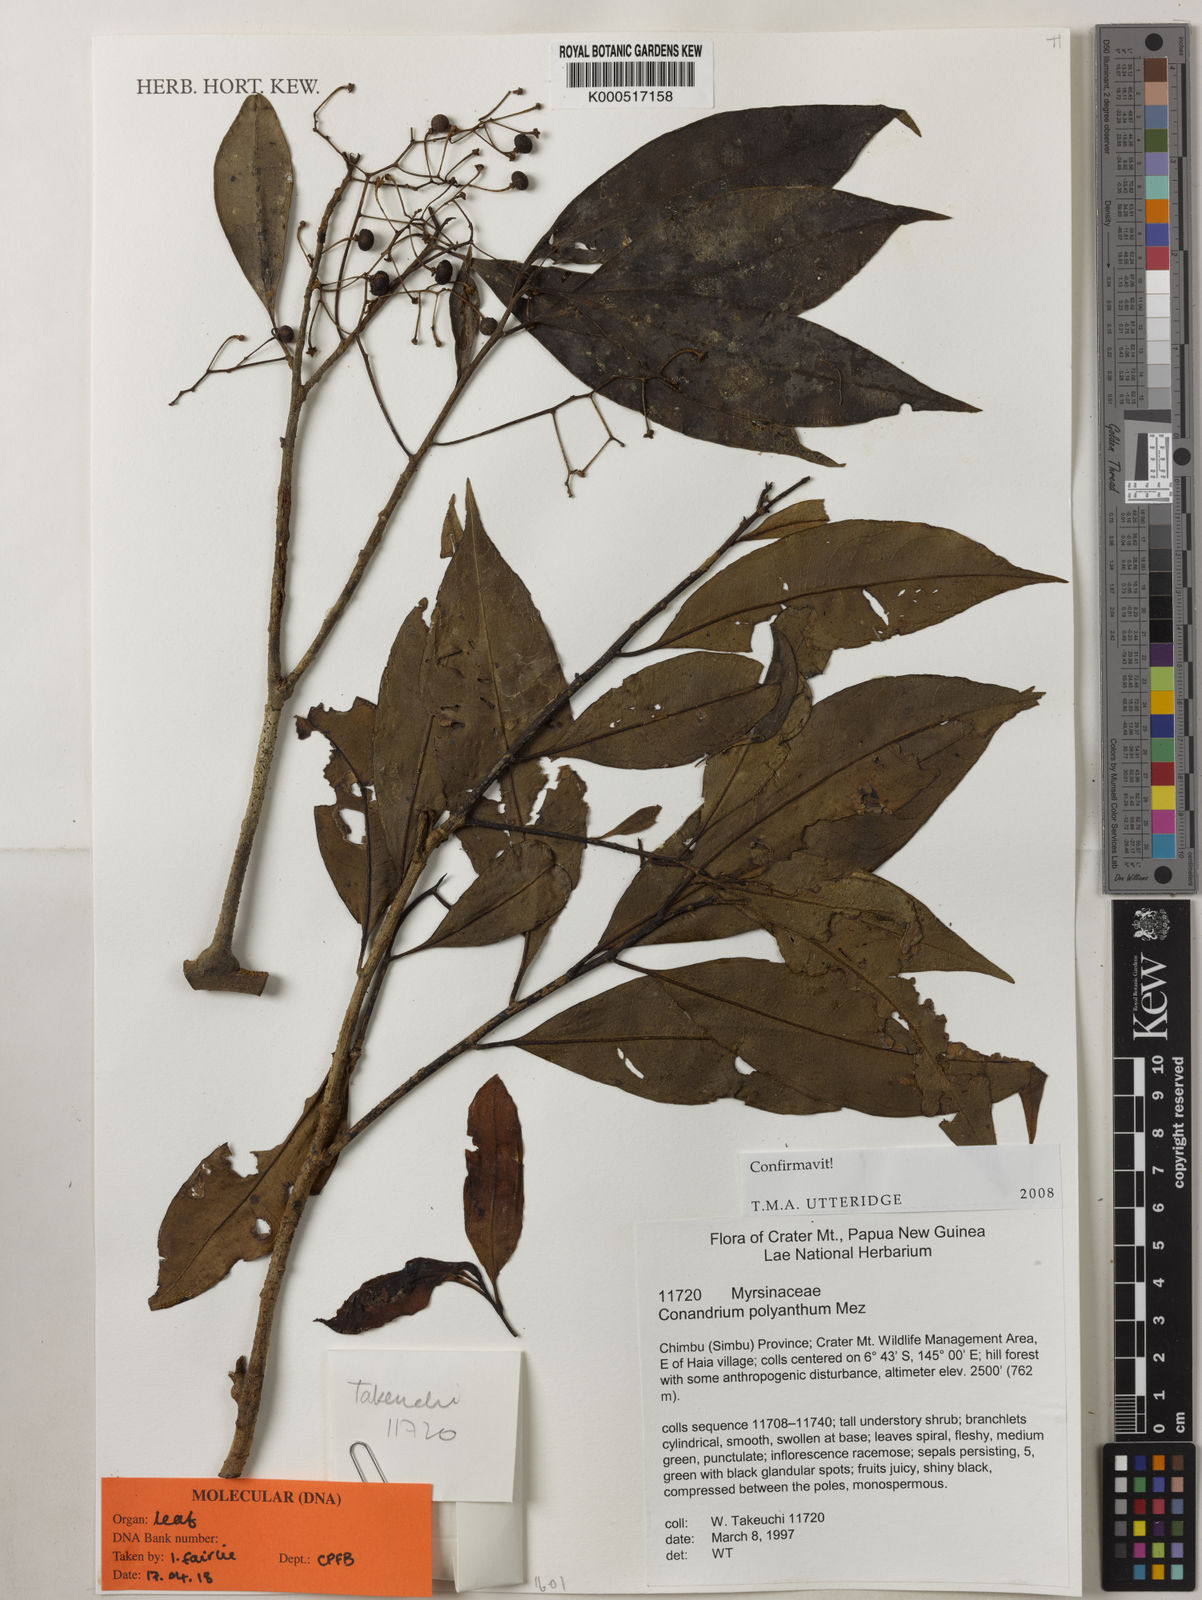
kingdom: Plantae
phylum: Tracheophyta
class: Magnoliopsida
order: Ericales
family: Primulaceae
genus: Conandrium
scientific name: Conandrium polyanthum
